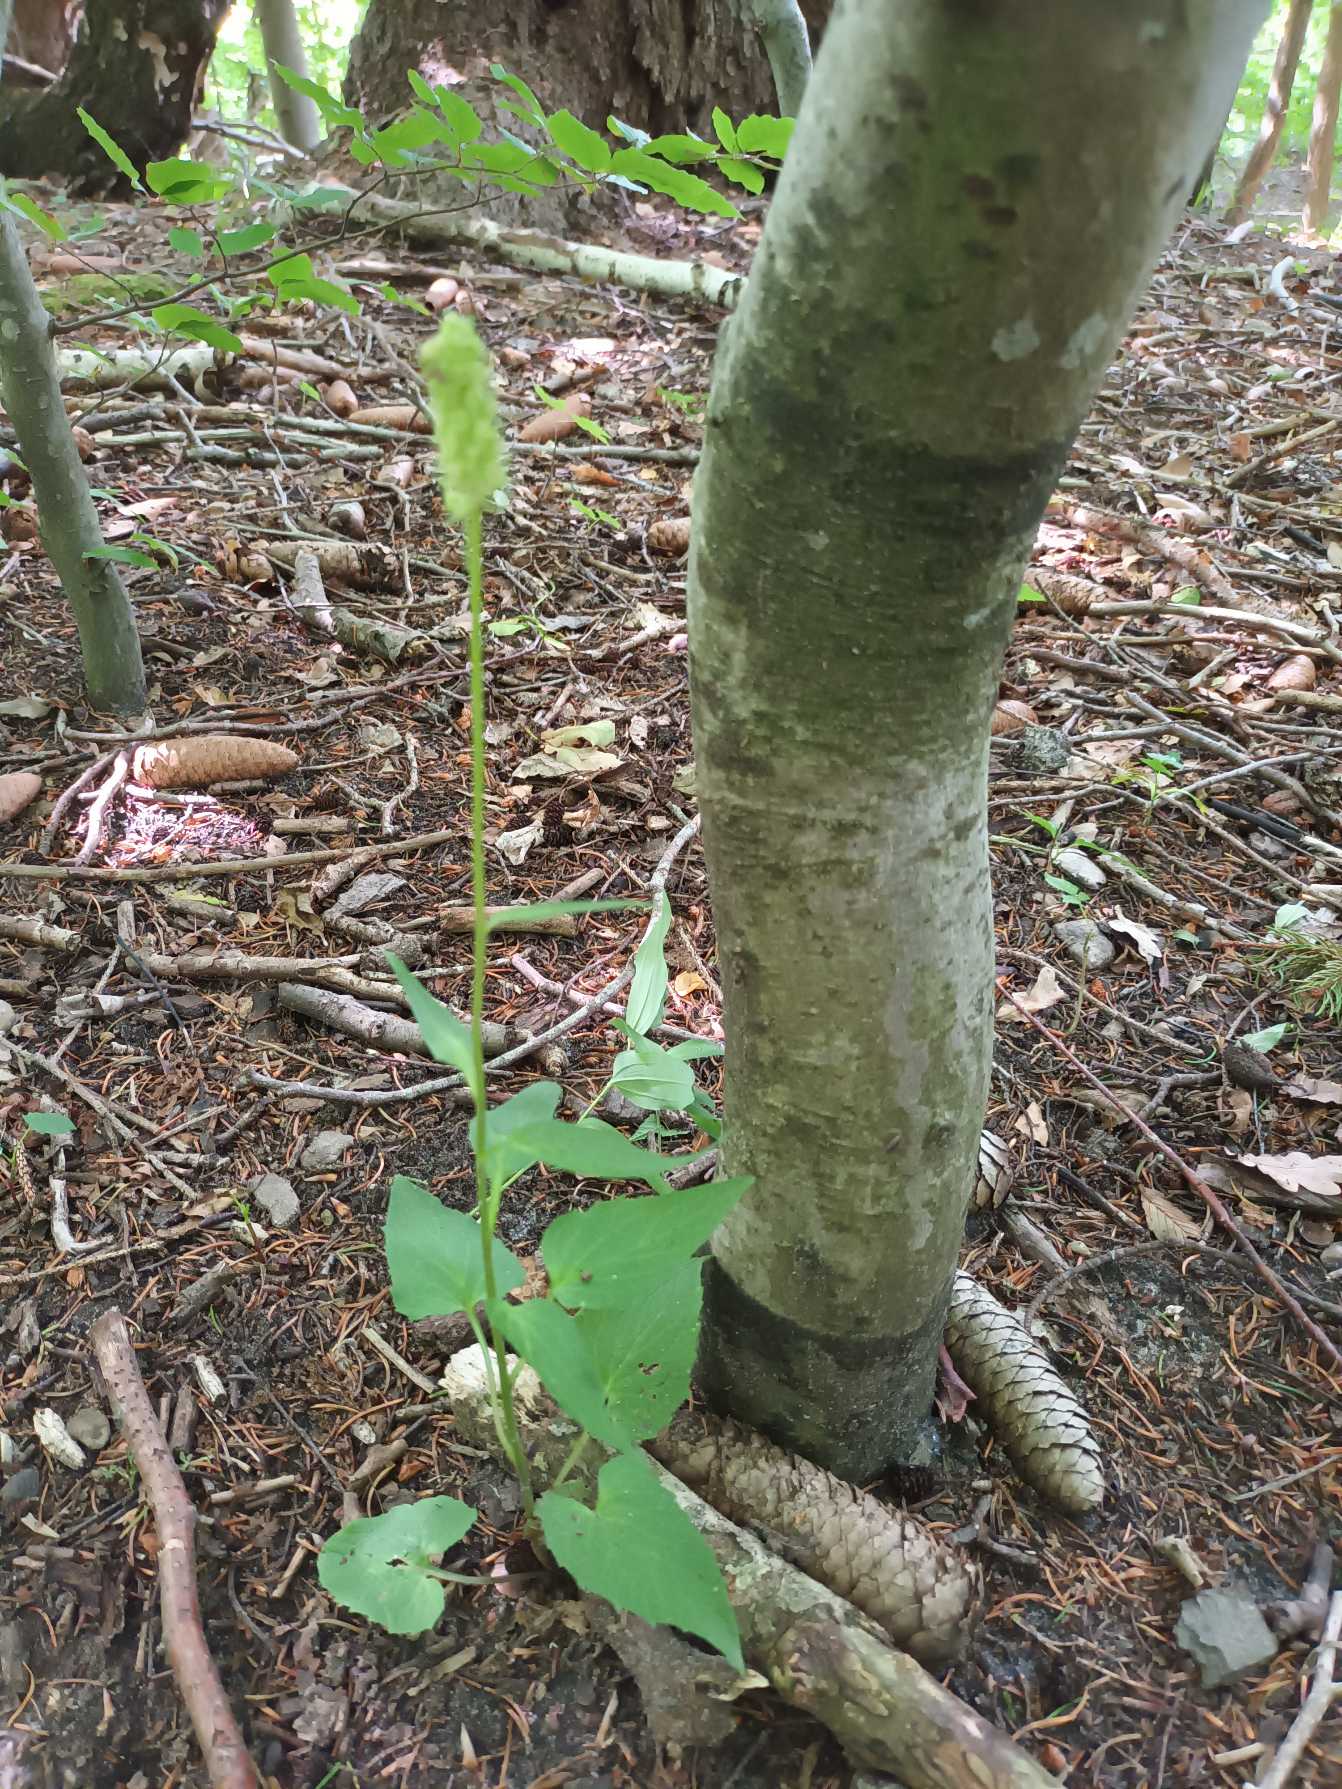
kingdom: Plantae
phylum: Tracheophyta
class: Magnoliopsida
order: Asterales
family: Campanulaceae
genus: Phyteuma
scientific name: Phyteuma spicatum
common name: Aks-rapunsel
